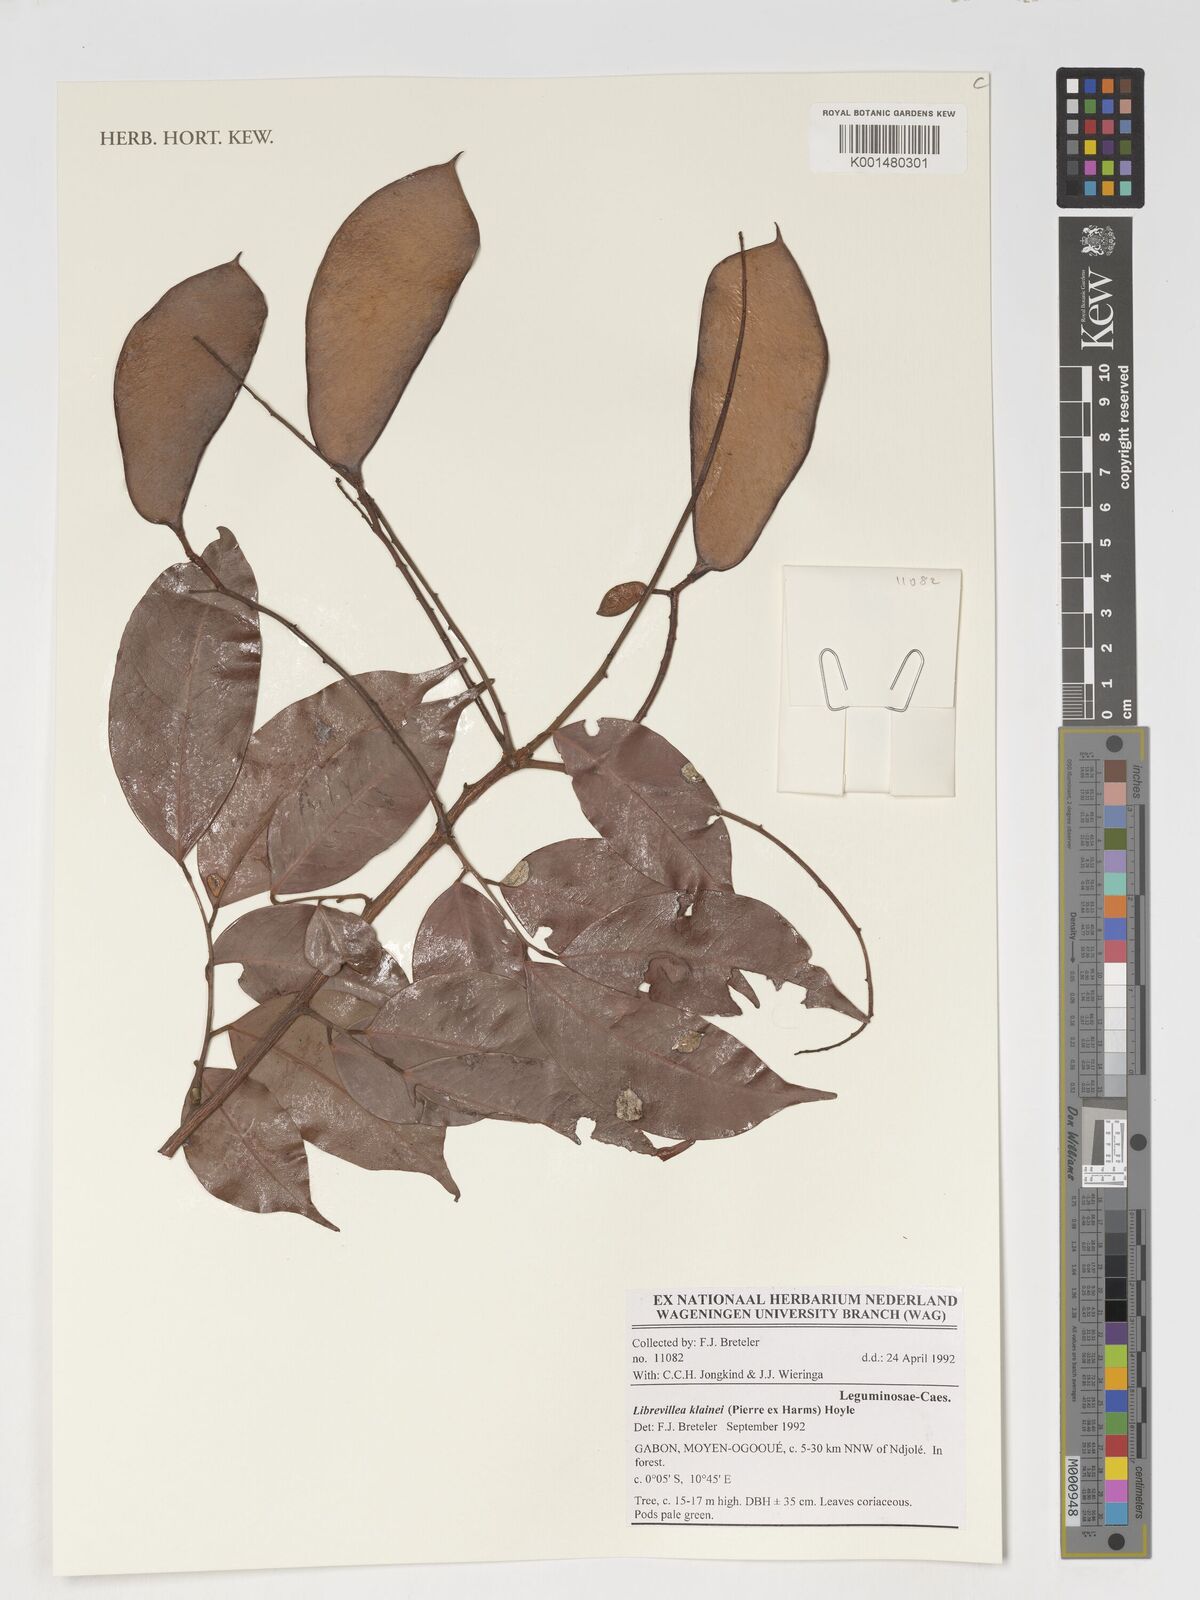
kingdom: Plantae
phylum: Tracheophyta
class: Magnoliopsida
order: Fabales
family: Fabaceae
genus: Librevillea
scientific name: Librevillea klainei
